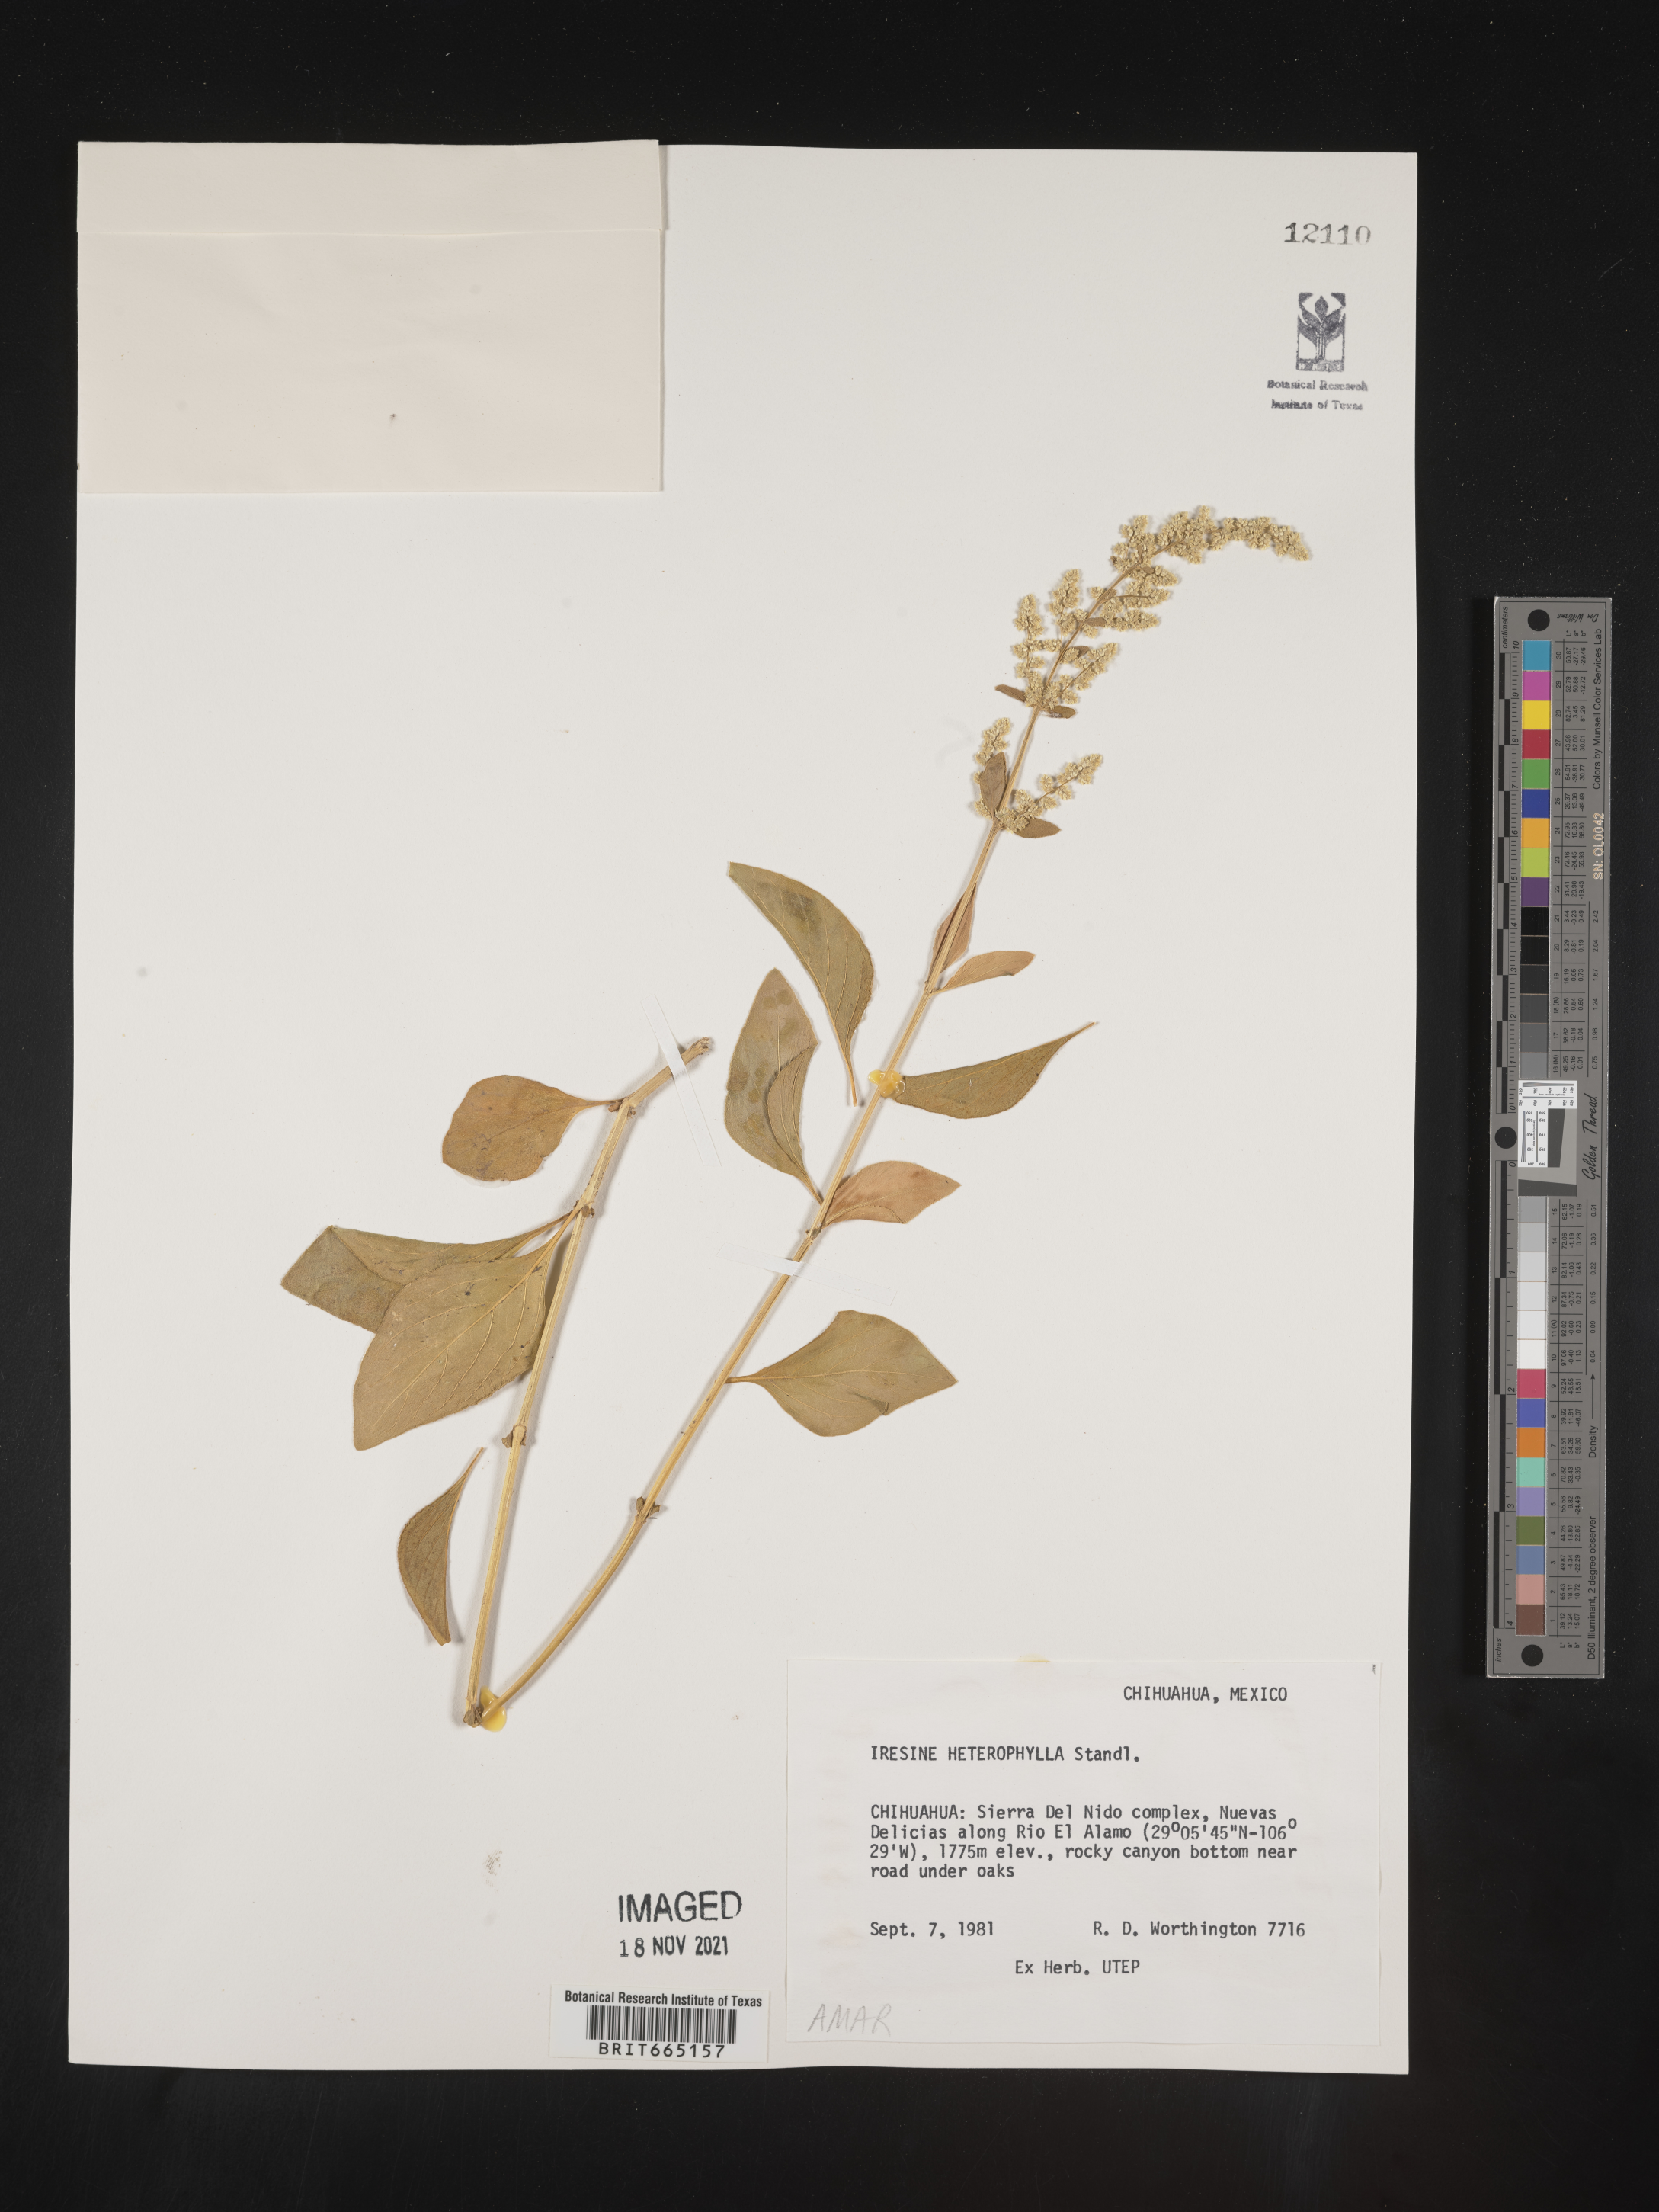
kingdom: Plantae
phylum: Tracheophyta
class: Magnoliopsida
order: Caryophyllales
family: Amaranthaceae
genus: Iresine
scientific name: Iresine
